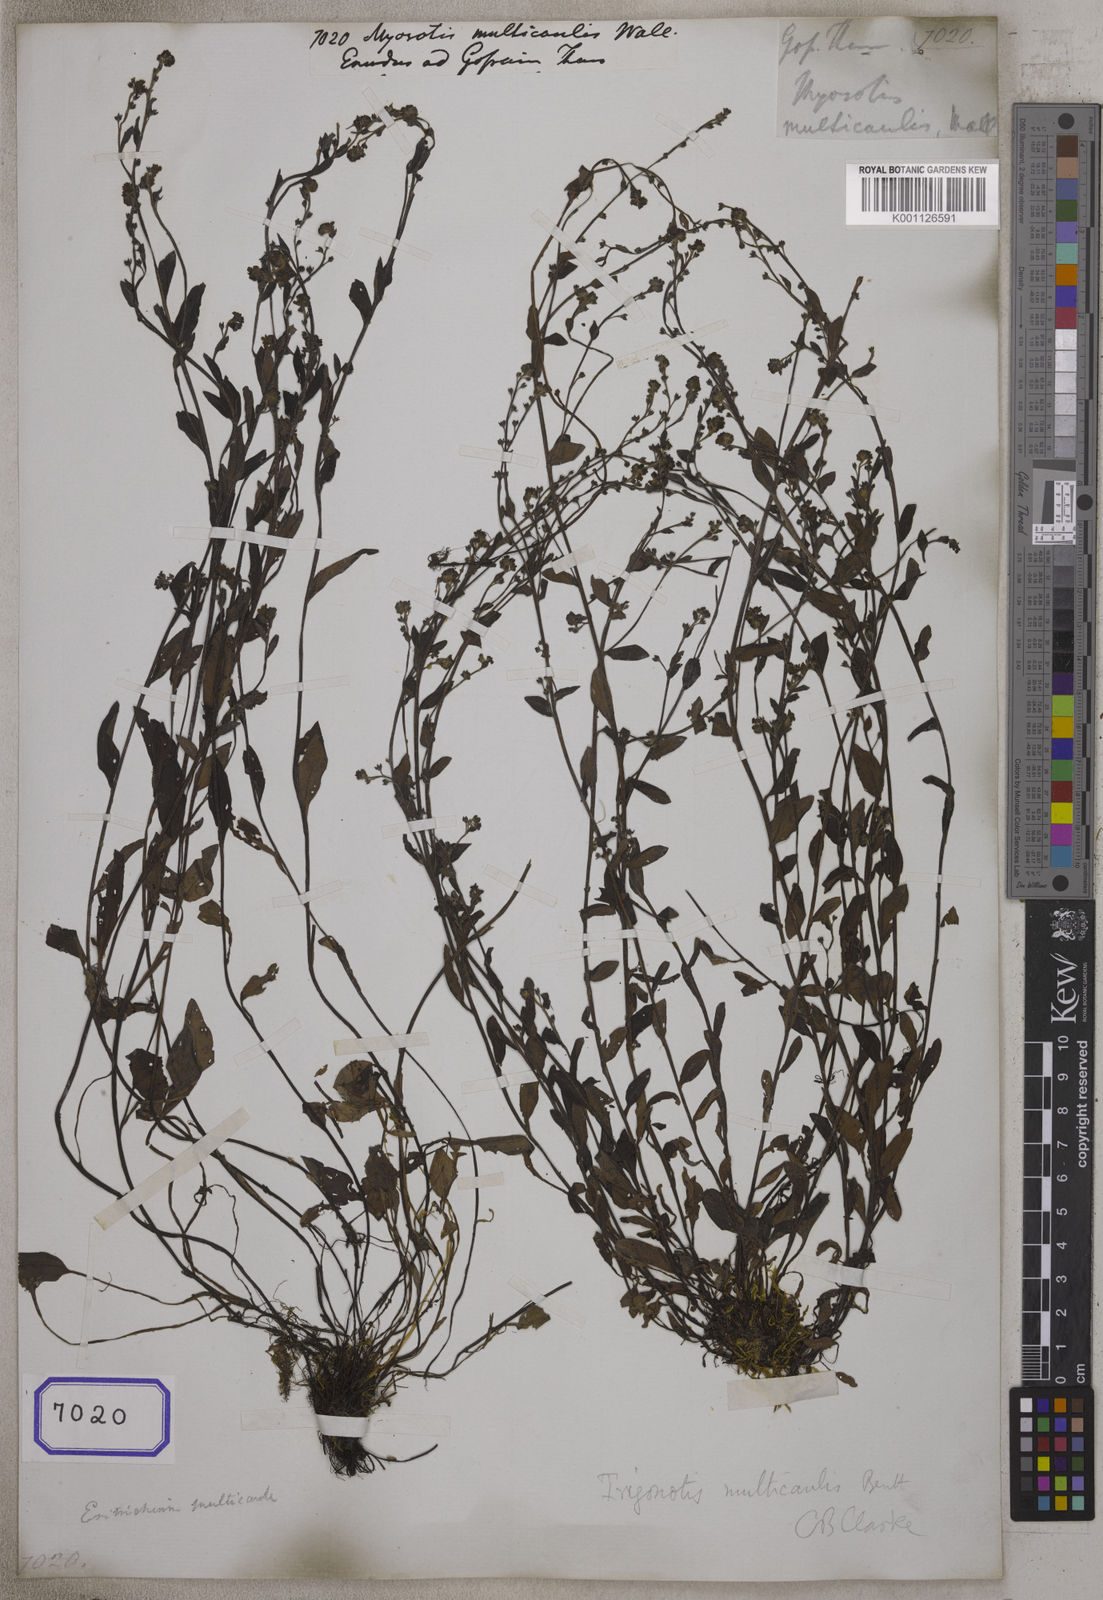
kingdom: Plantae
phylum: Tracheophyta
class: Magnoliopsida
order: Boraginales
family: Boraginaceae
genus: Myosotis
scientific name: Myosotis
